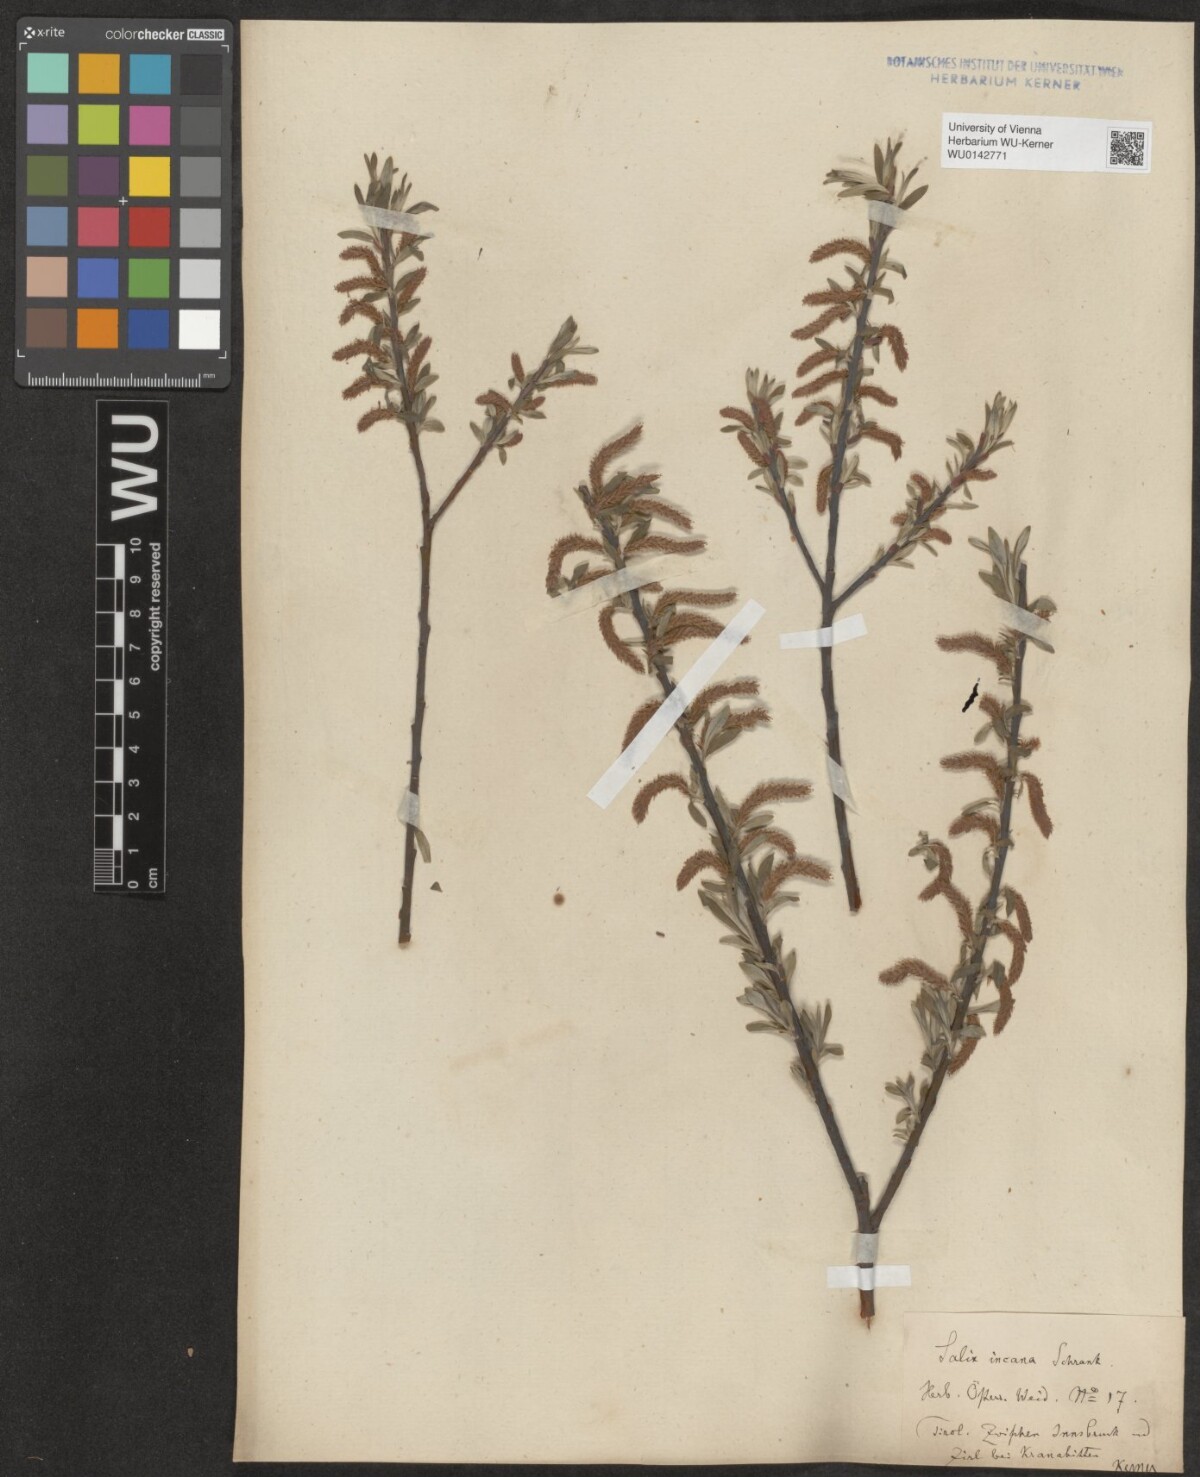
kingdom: Plantae
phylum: Tracheophyta
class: Magnoliopsida
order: Malpighiales
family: Salicaceae
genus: Salix
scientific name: Salix eleagnos
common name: Elaeagnus willow
